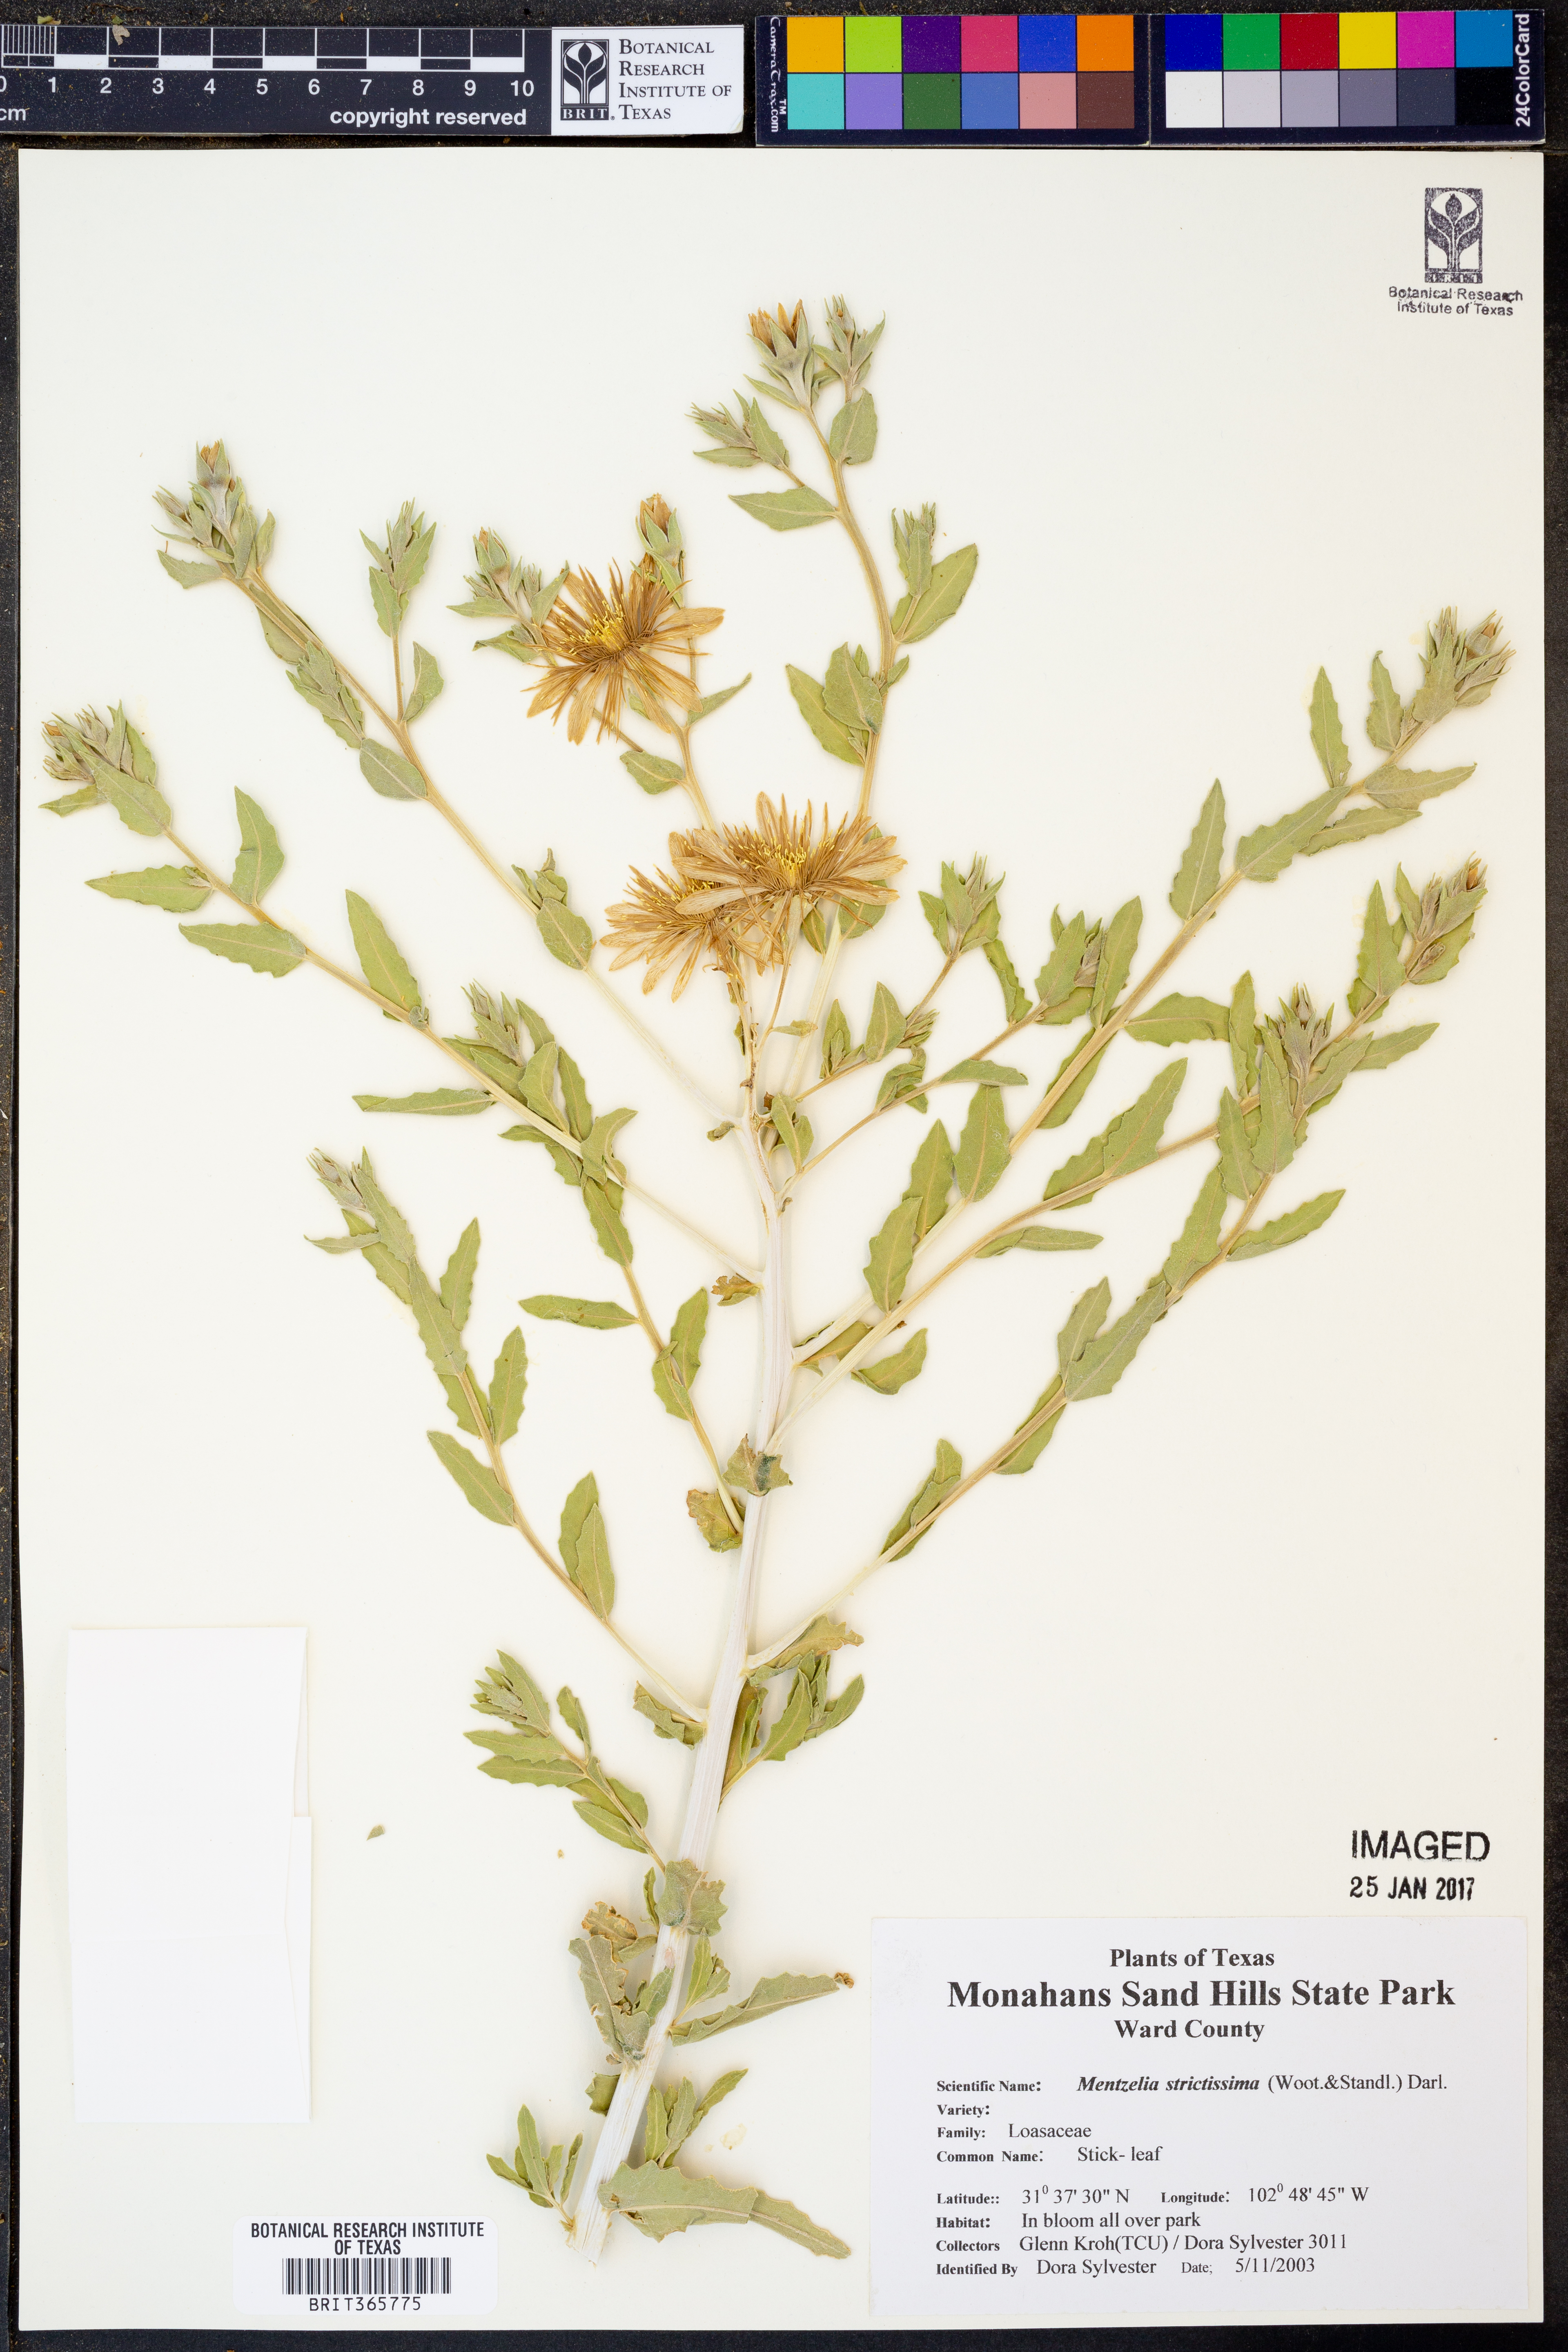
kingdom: Plantae
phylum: Tracheophyta
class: Magnoliopsida
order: Cornales
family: Loasaceae
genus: Mentzelia
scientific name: Mentzelia strictissima
